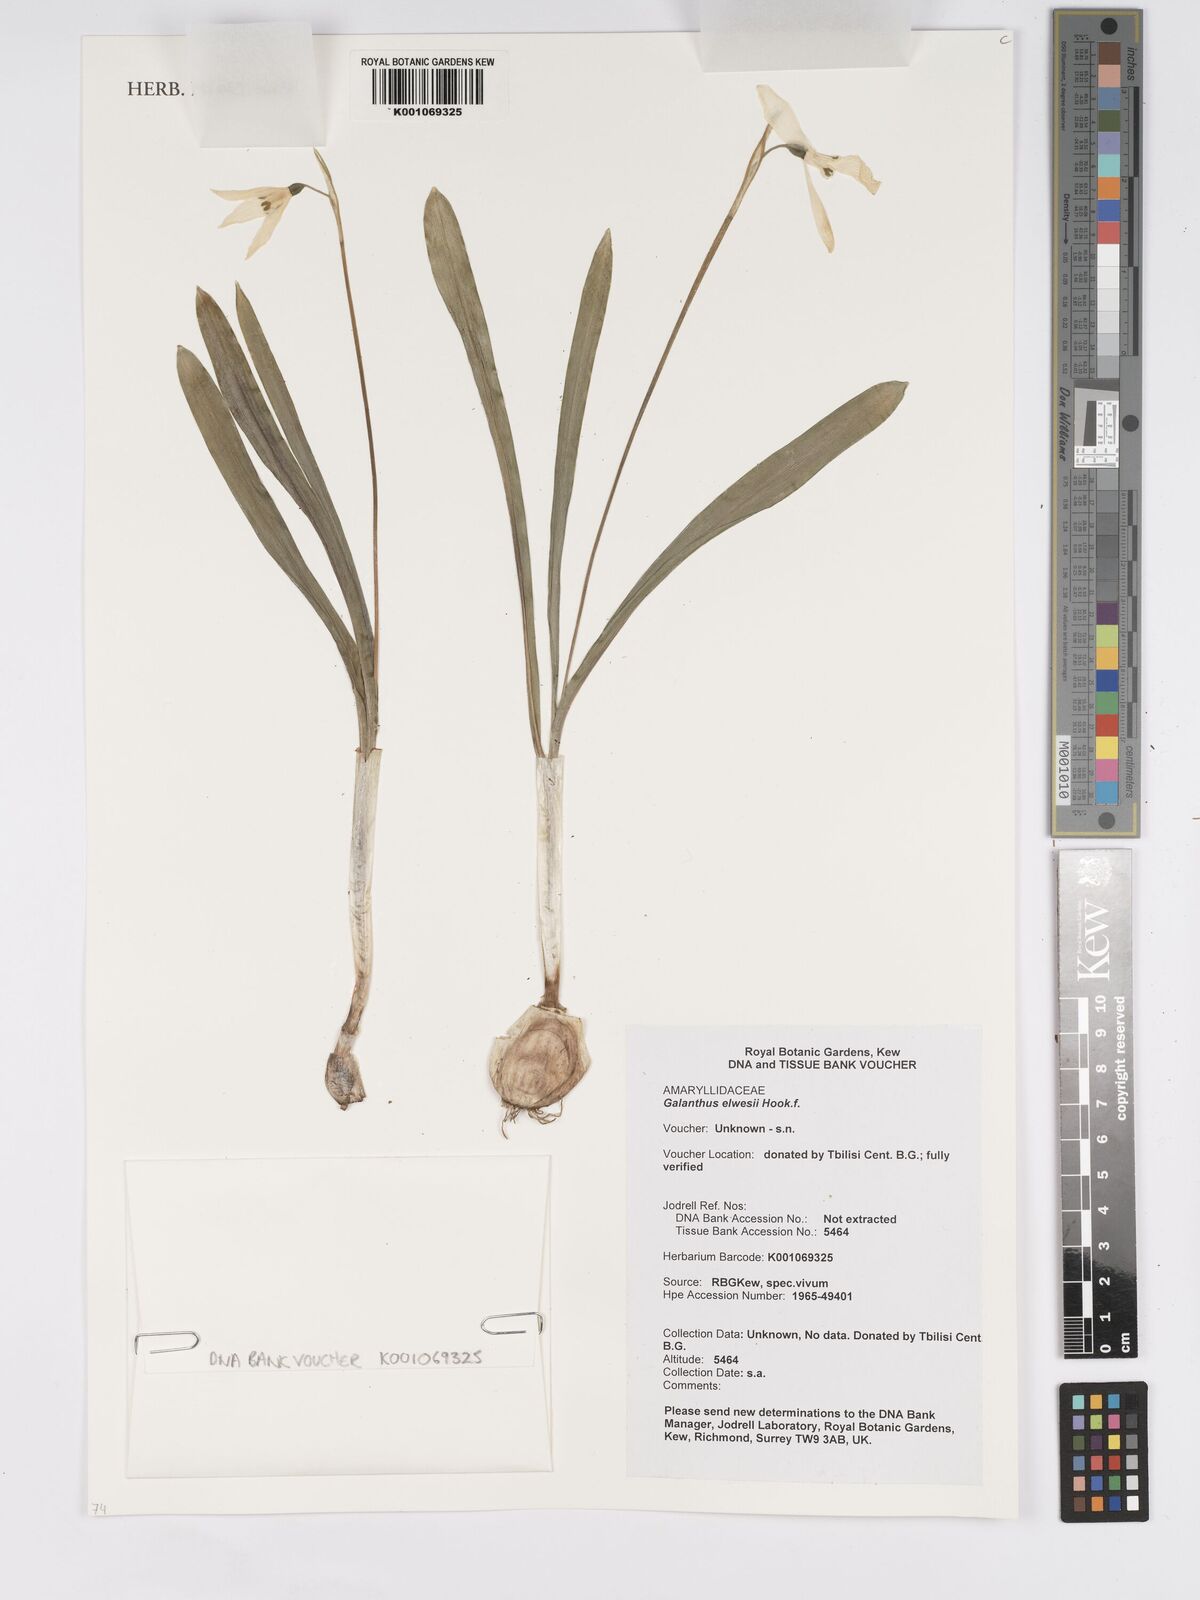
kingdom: Plantae
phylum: Tracheophyta
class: Liliopsida
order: Asparagales
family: Amaryllidaceae
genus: Galanthus
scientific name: Galanthus elwesii
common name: Greater snowdrop
